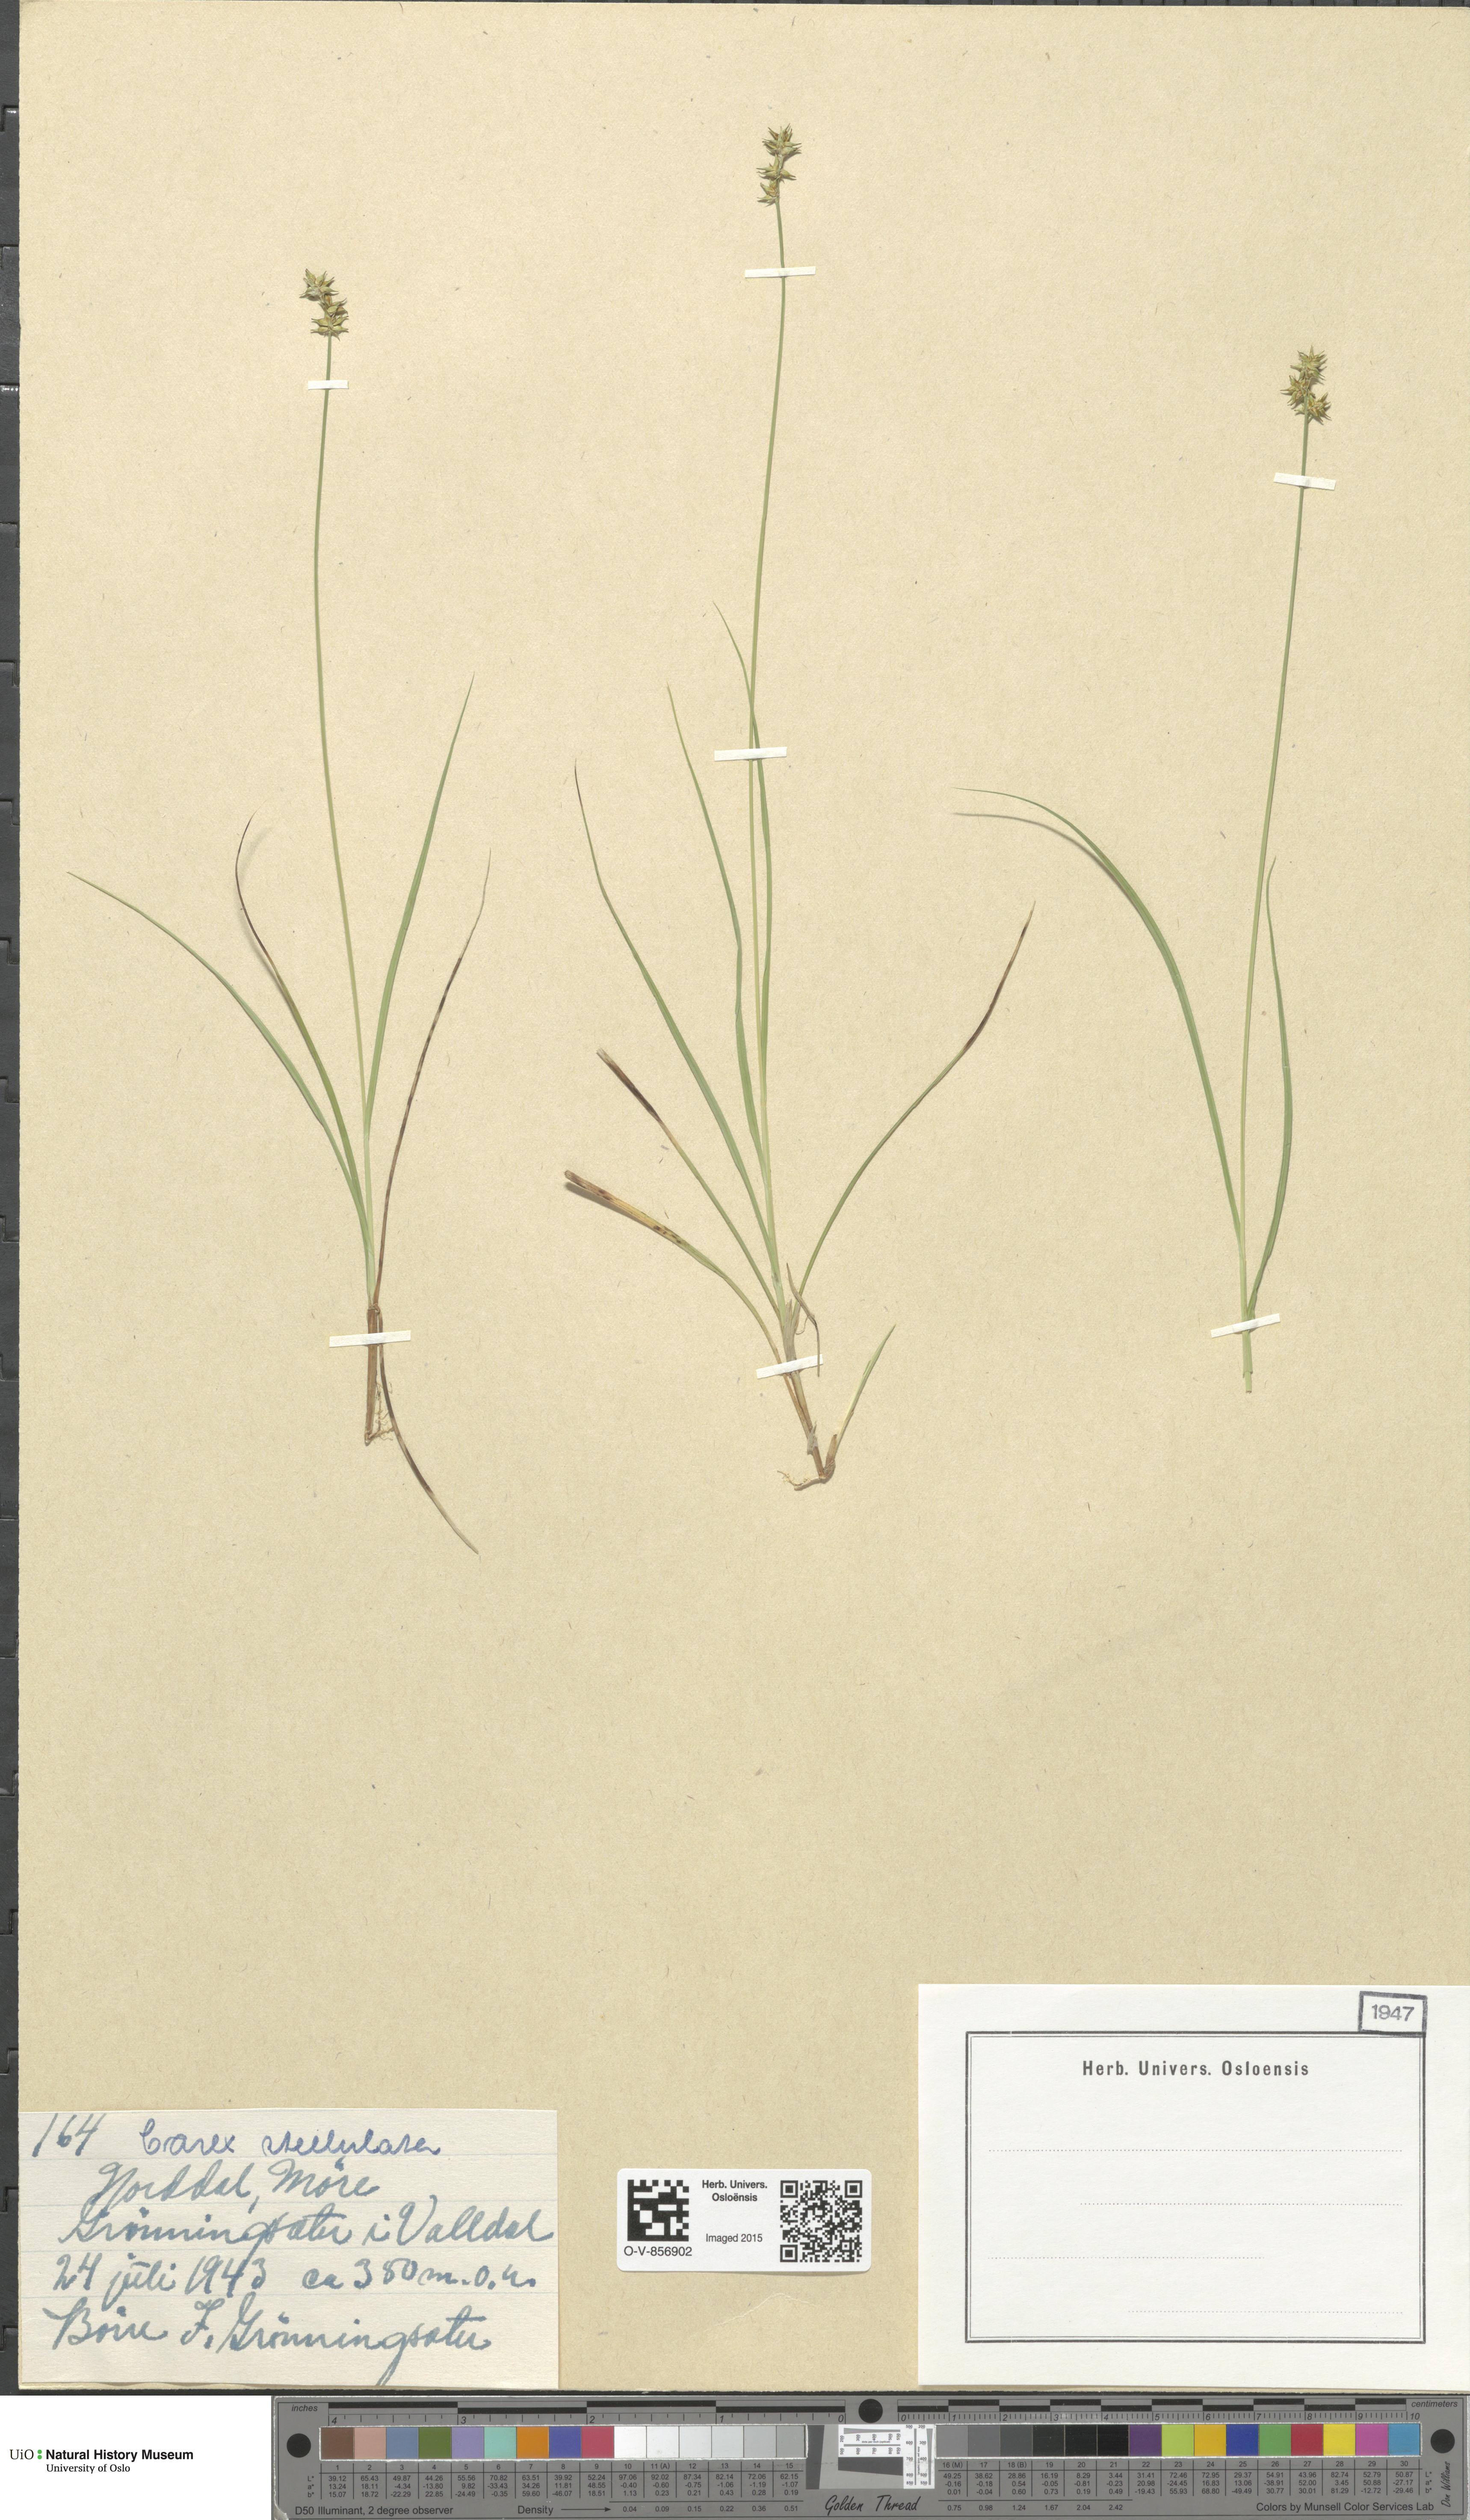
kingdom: Plantae
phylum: Tracheophyta
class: Liliopsida
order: Poales
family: Cyperaceae
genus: Carex
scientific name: Carex echinata
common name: Star sedge
